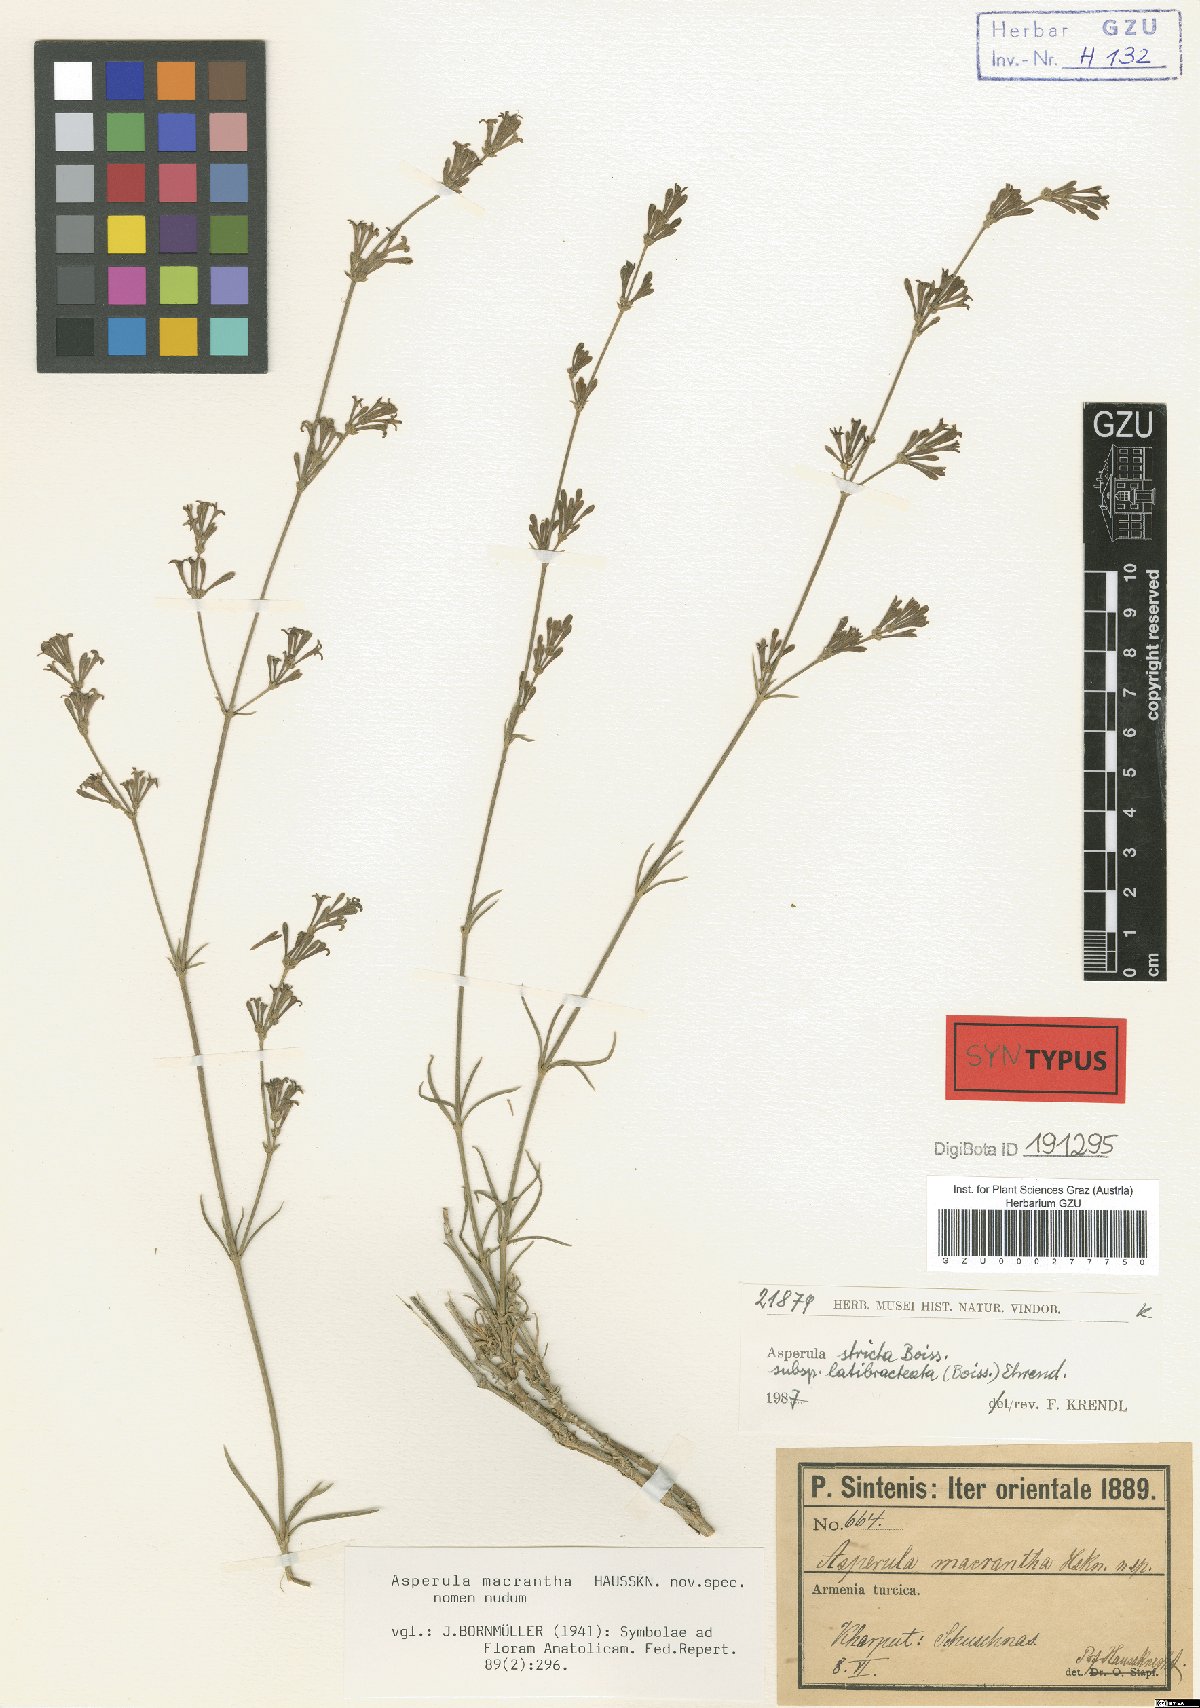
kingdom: Plantae
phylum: Tracheophyta
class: Magnoliopsida
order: Gentianales
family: Rubiaceae
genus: Cynanchica
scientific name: Cynanchica stricta
